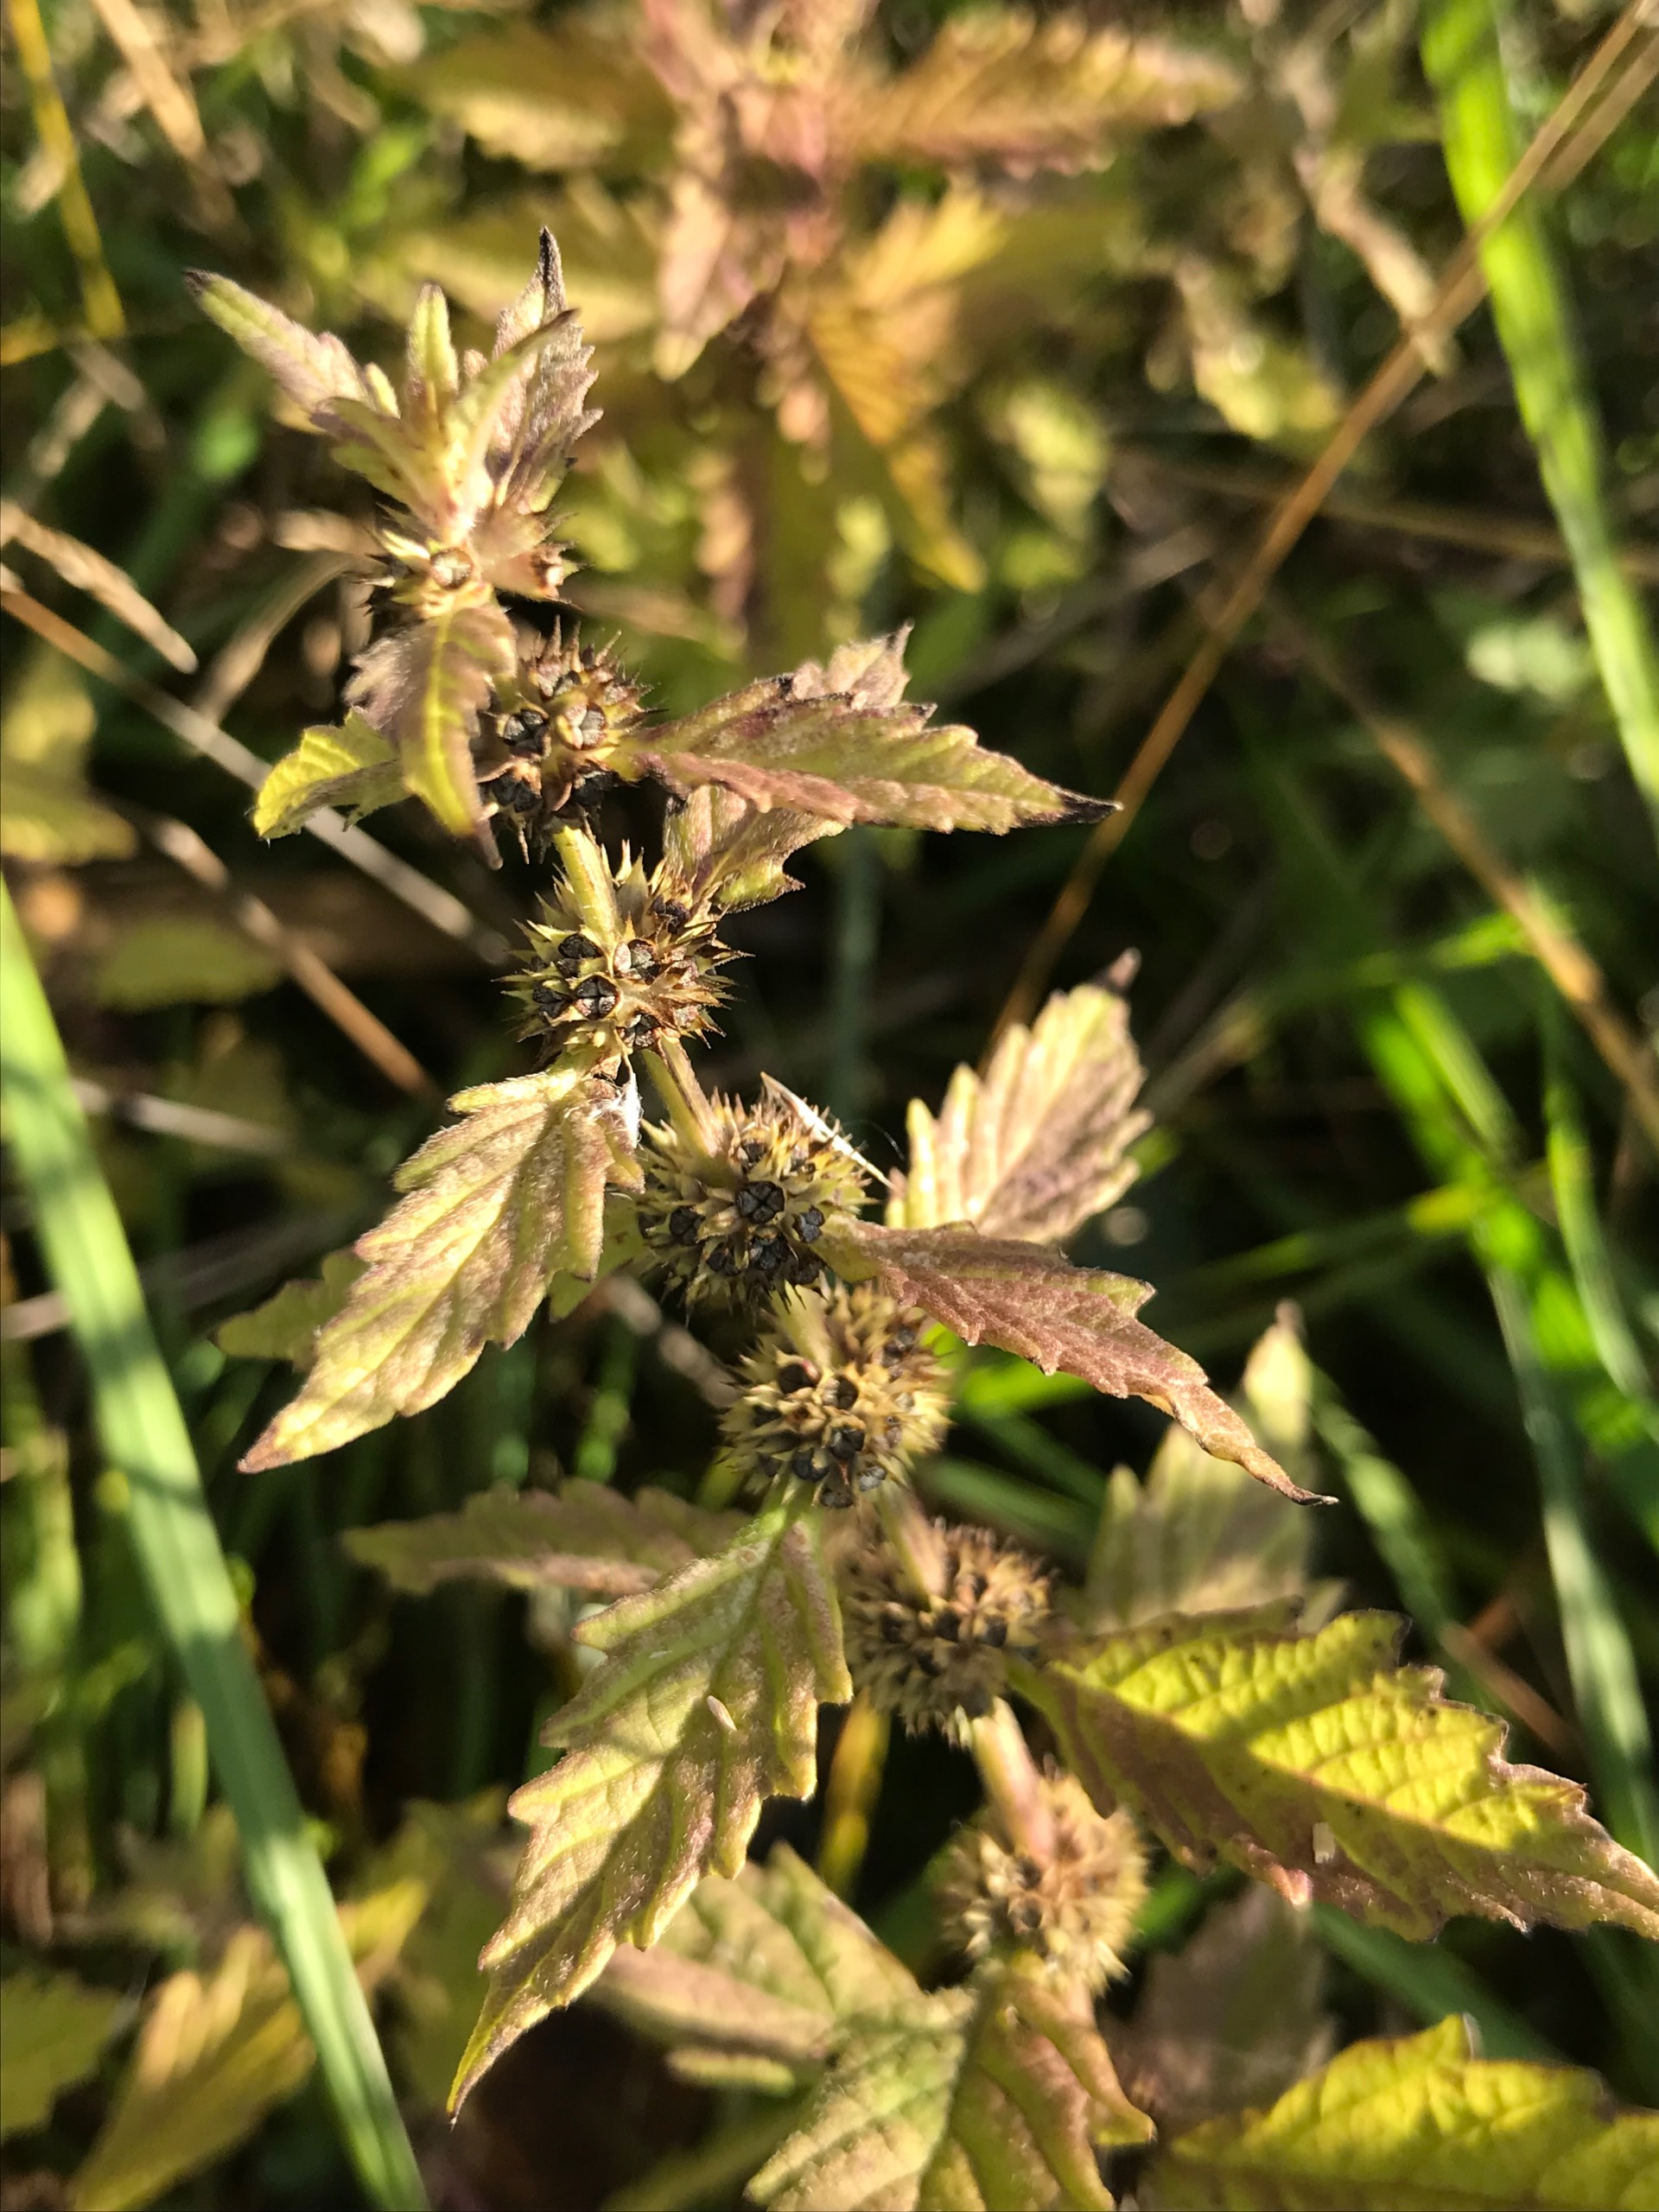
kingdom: Plantae
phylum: Tracheophyta
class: Magnoliopsida
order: Lamiales
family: Lamiaceae
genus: Lycopus
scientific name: Lycopus europaeus
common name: Sværtevæld
